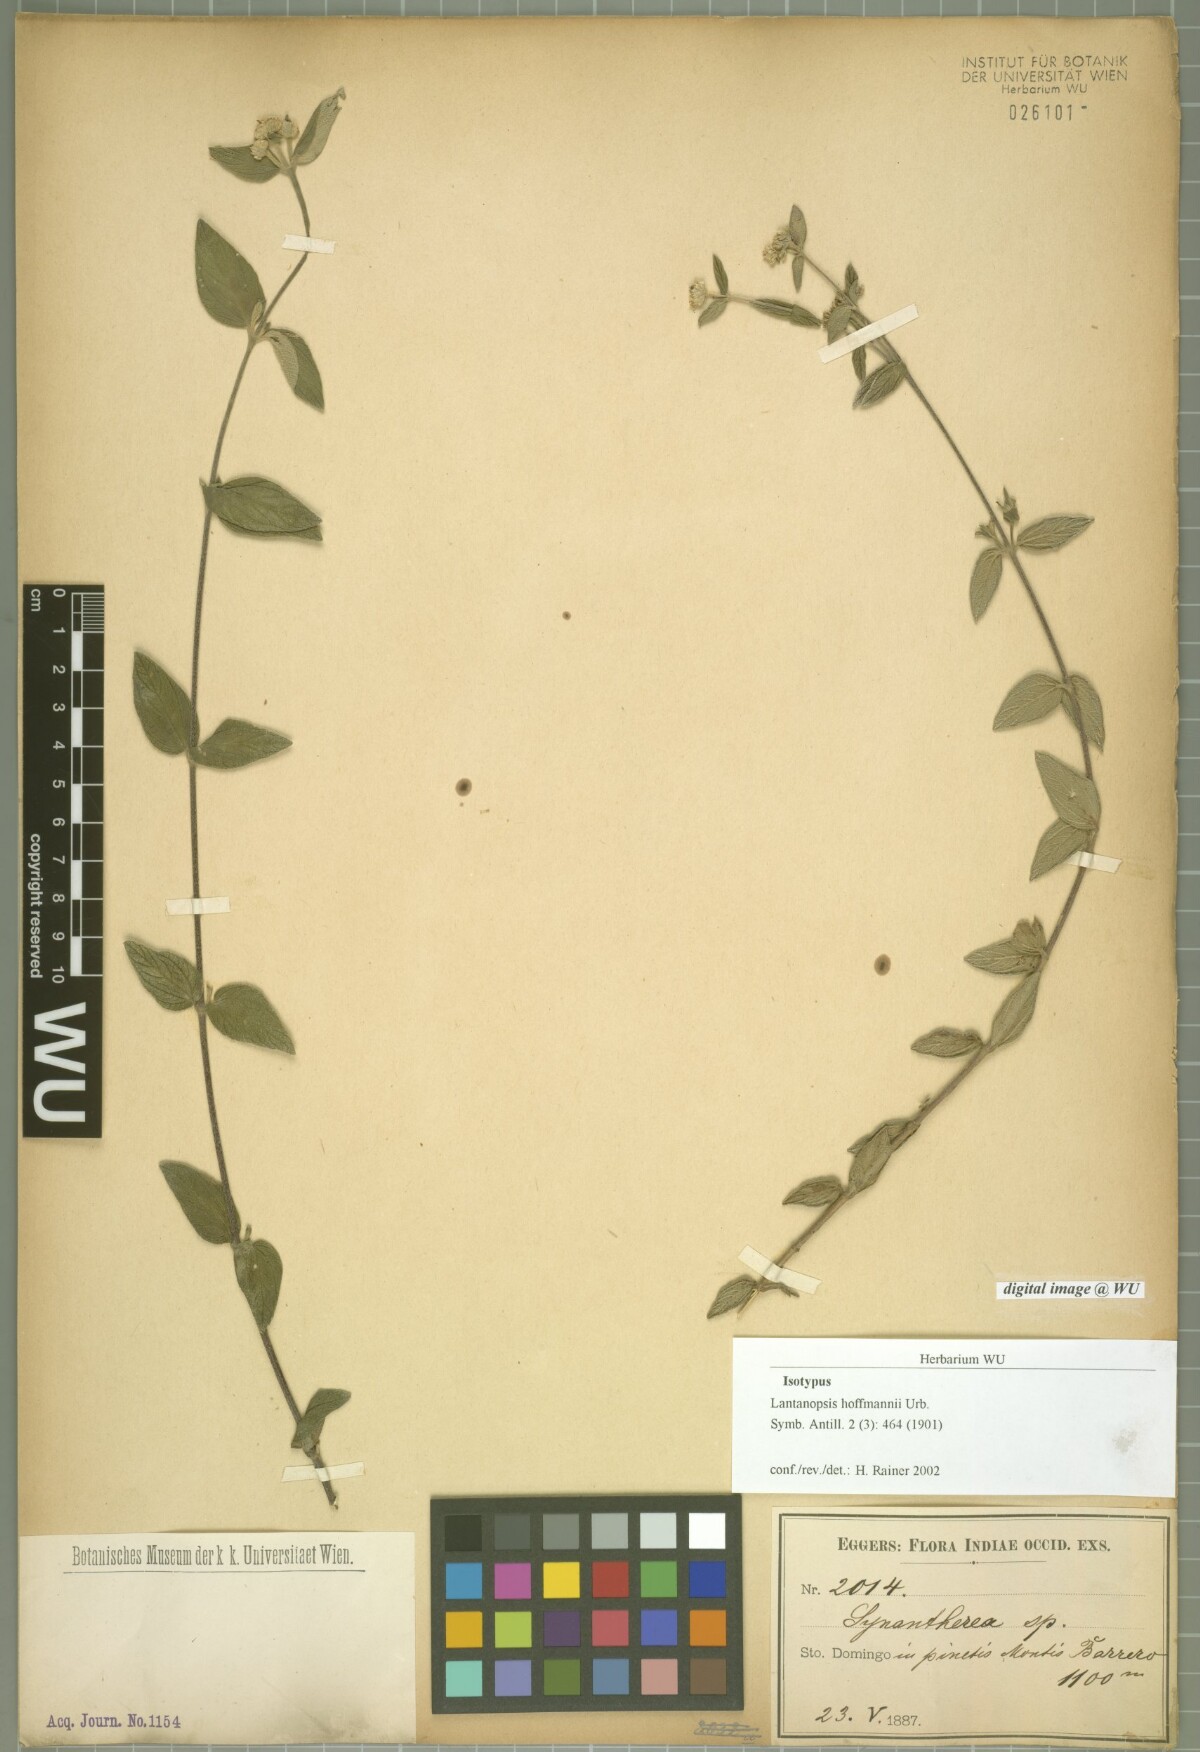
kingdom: Plantae
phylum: Tracheophyta
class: Magnoliopsida
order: Asterales
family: Asteraceae
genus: Lantanopsis
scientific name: Lantanopsis hoffmannii
